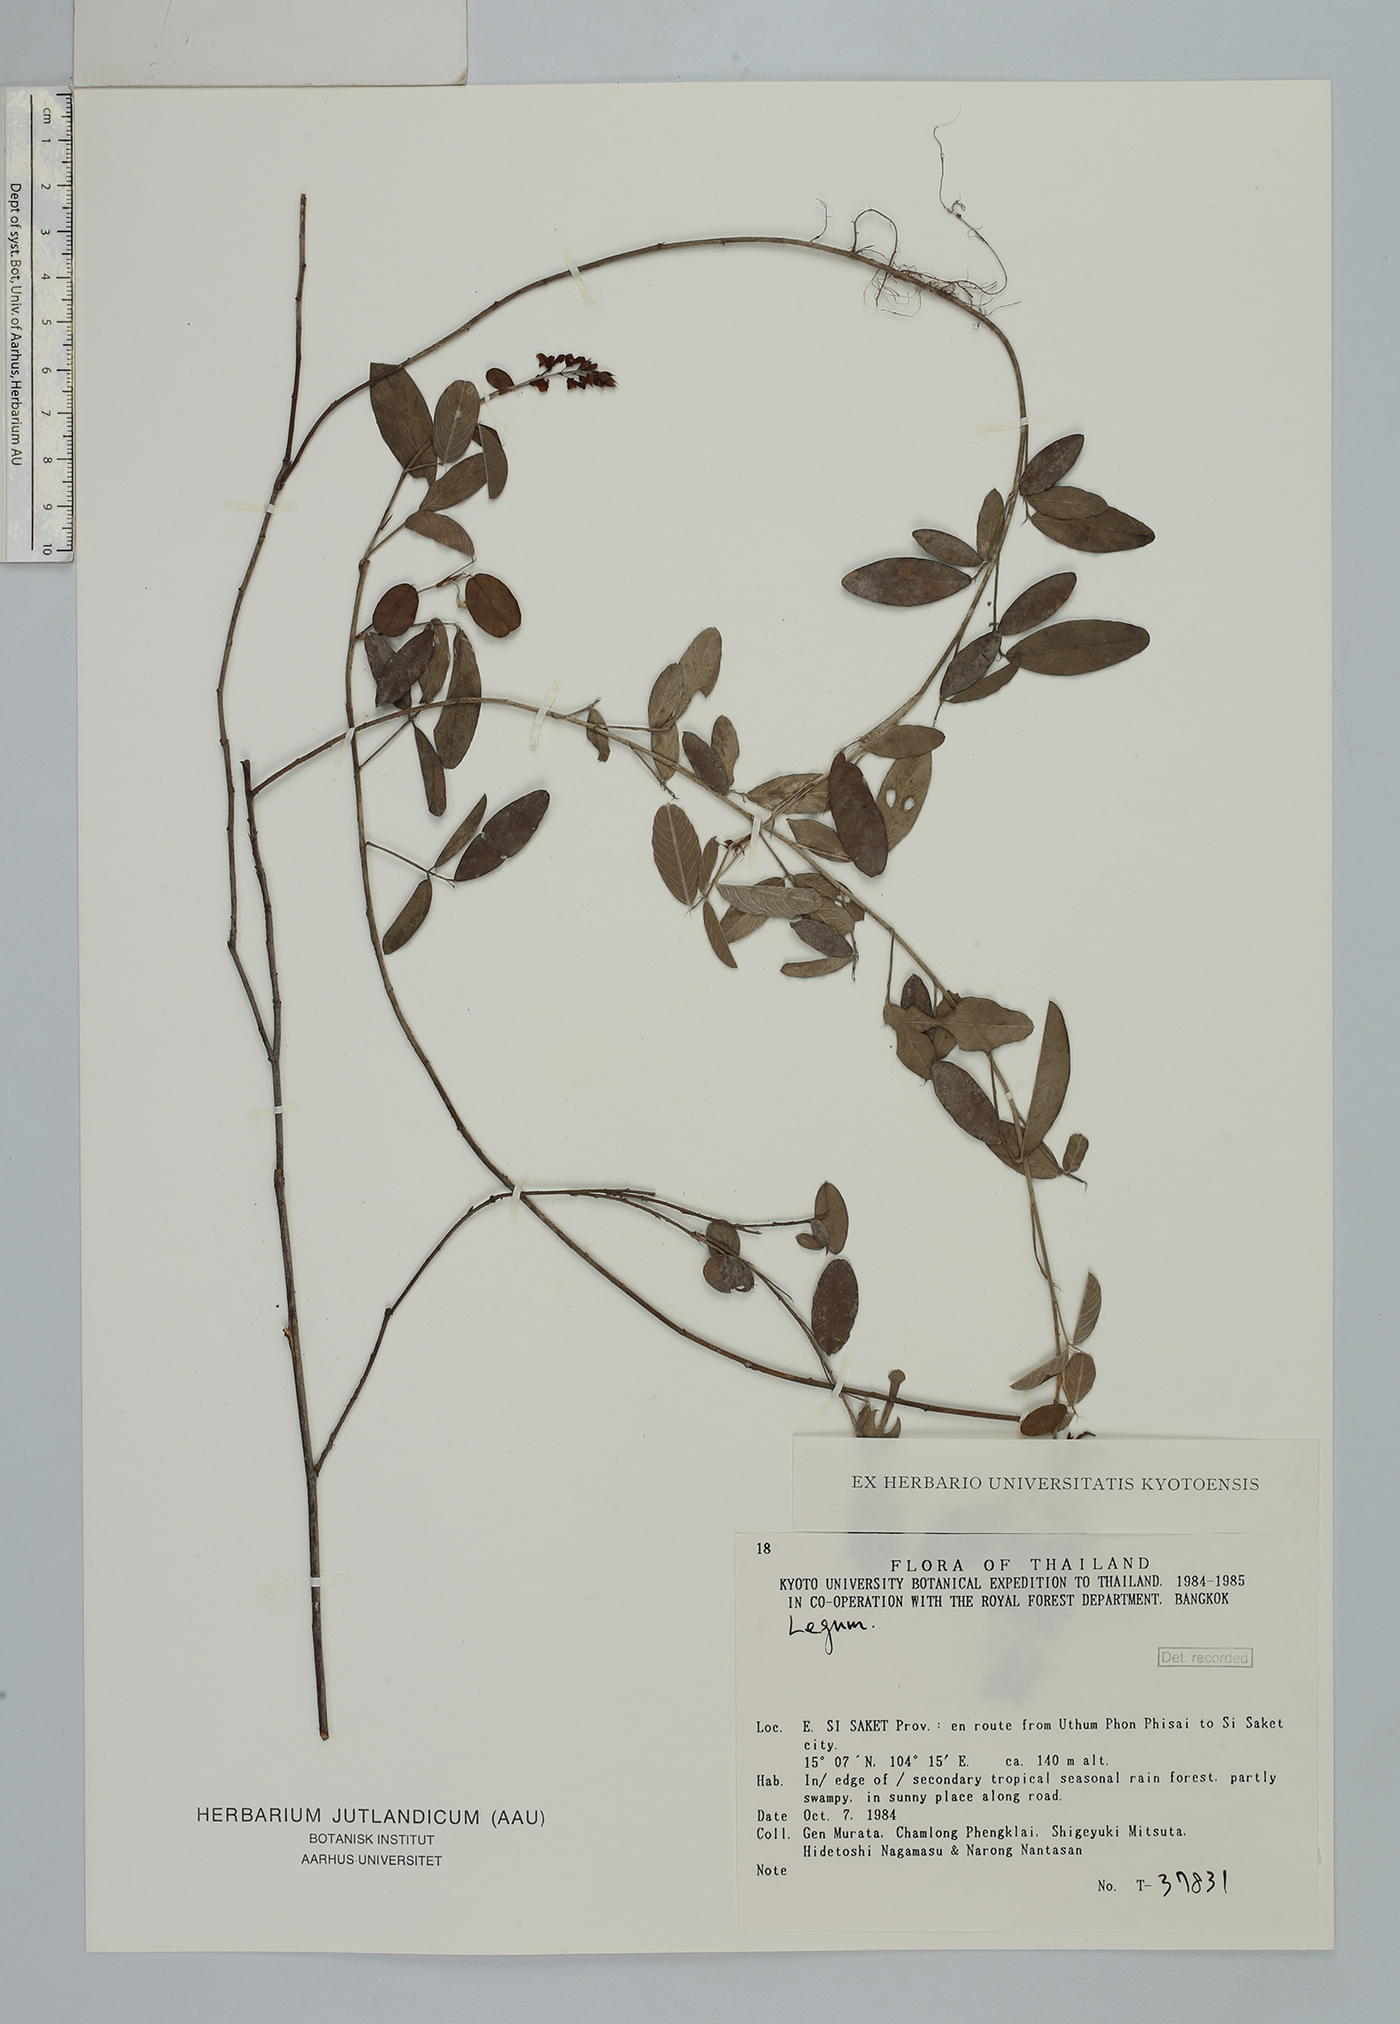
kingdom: Plantae
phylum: Tracheophyta
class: Magnoliopsida
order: Fabales
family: Fabaceae
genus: Grona
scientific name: Grona strigillosa
